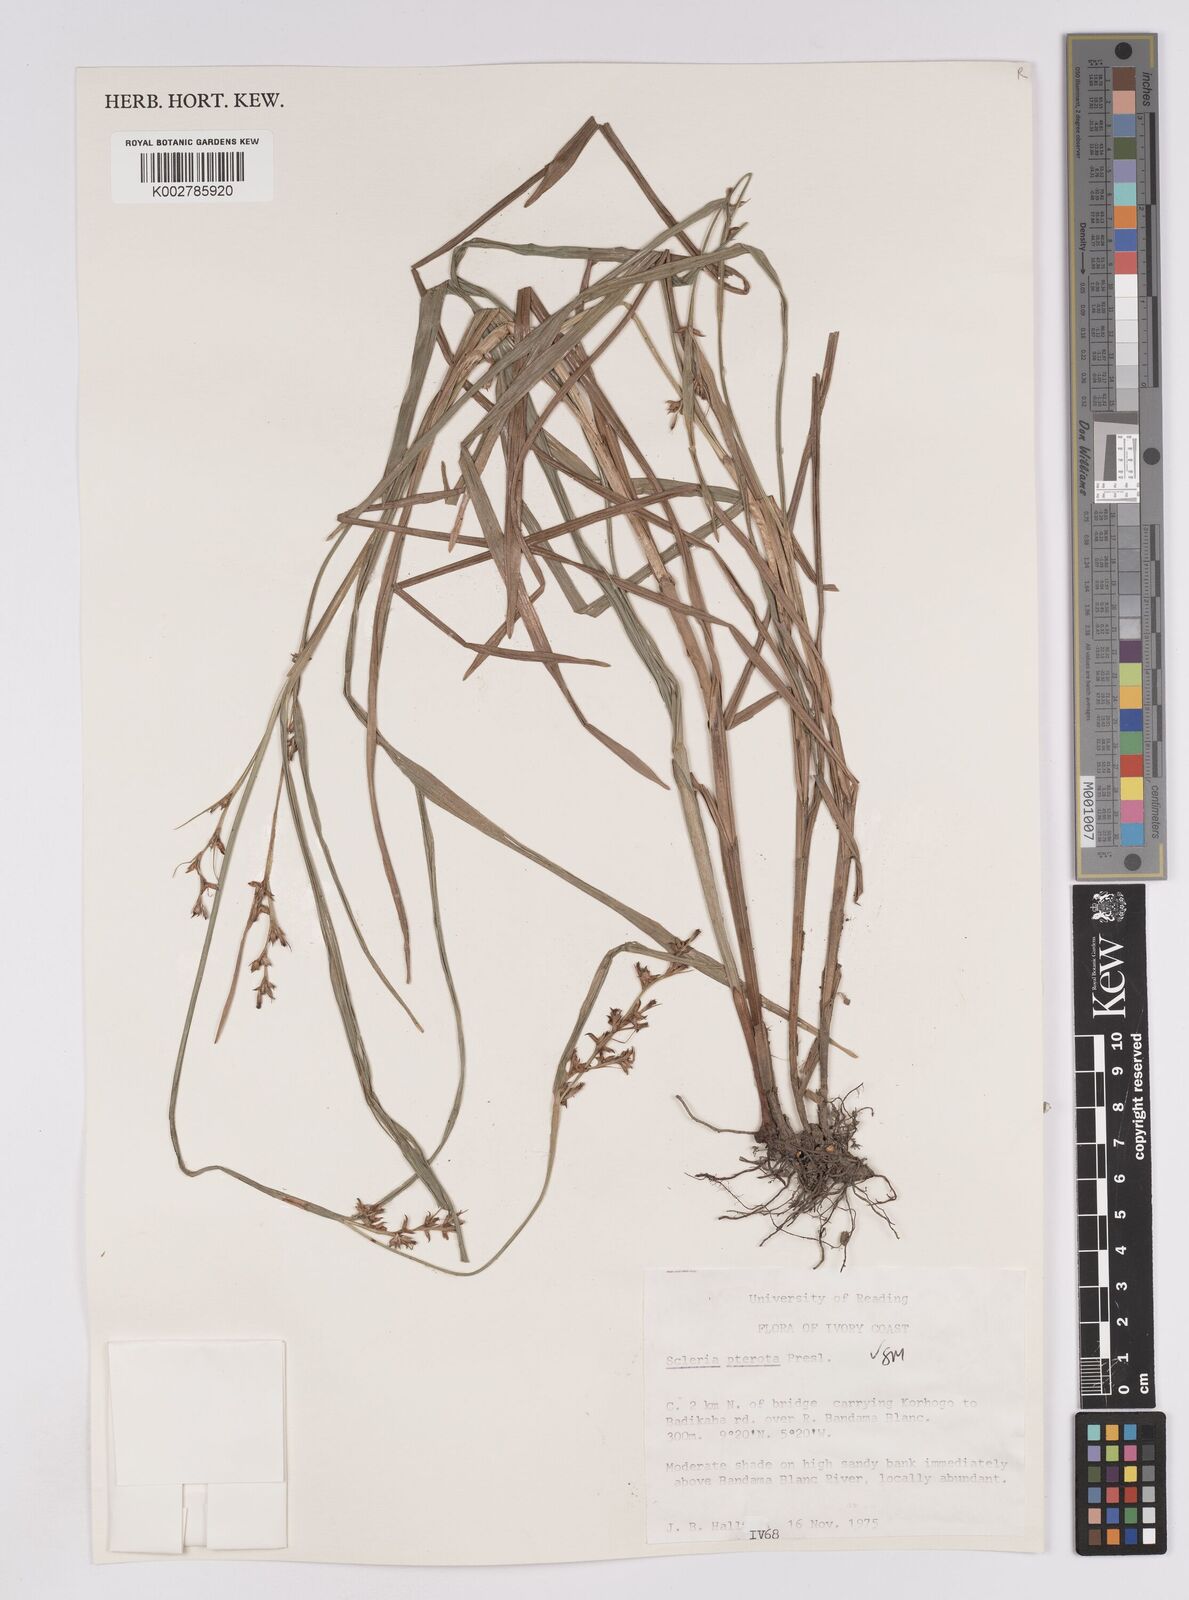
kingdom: Plantae
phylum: Tracheophyta
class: Liliopsida
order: Poales
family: Cyperaceae
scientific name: Cyperaceae
